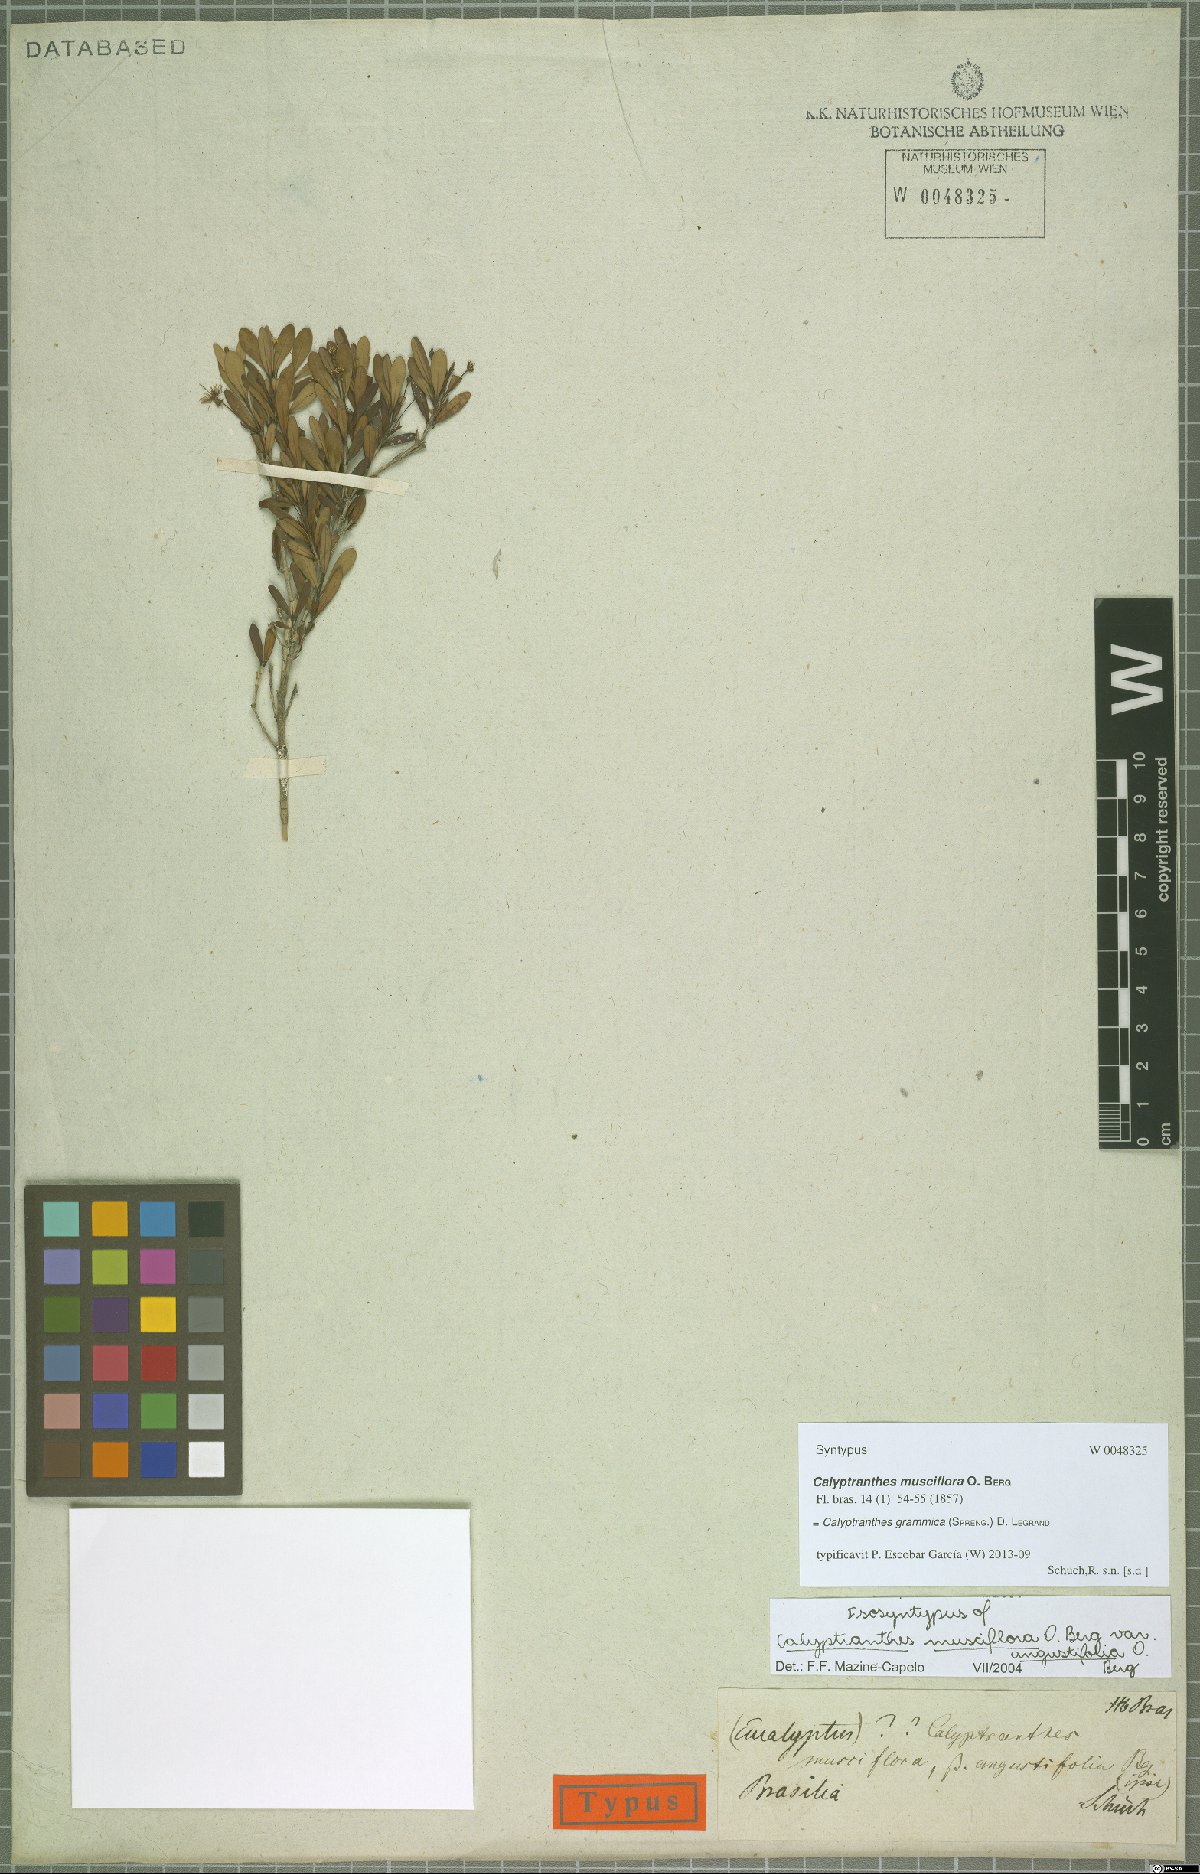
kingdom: Plantae
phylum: Tracheophyta
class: Magnoliopsida
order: Myrtales
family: Myrtaceae
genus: Myrcia
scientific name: Myrcia grammica
